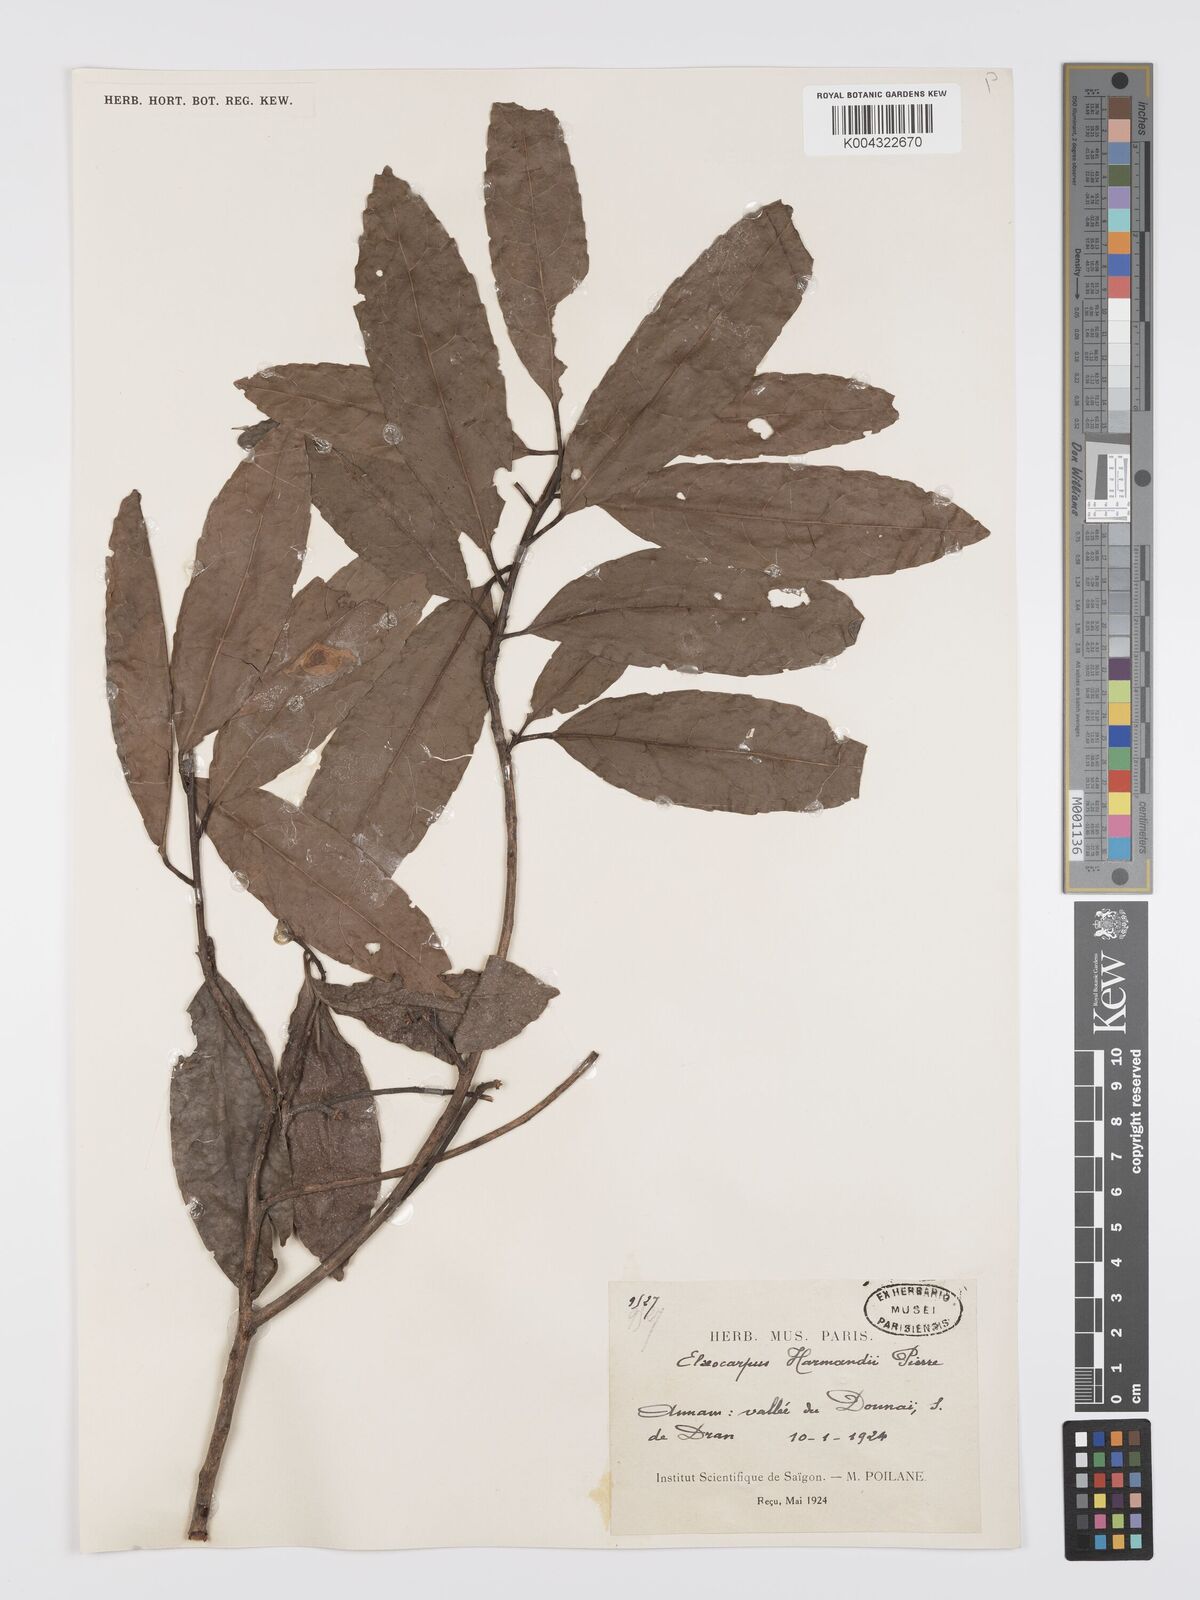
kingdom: Plantae
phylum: Tracheophyta
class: Magnoliopsida
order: Oxalidales
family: Elaeocarpaceae
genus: Elaeocarpus
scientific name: Elaeocarpus harmandii
